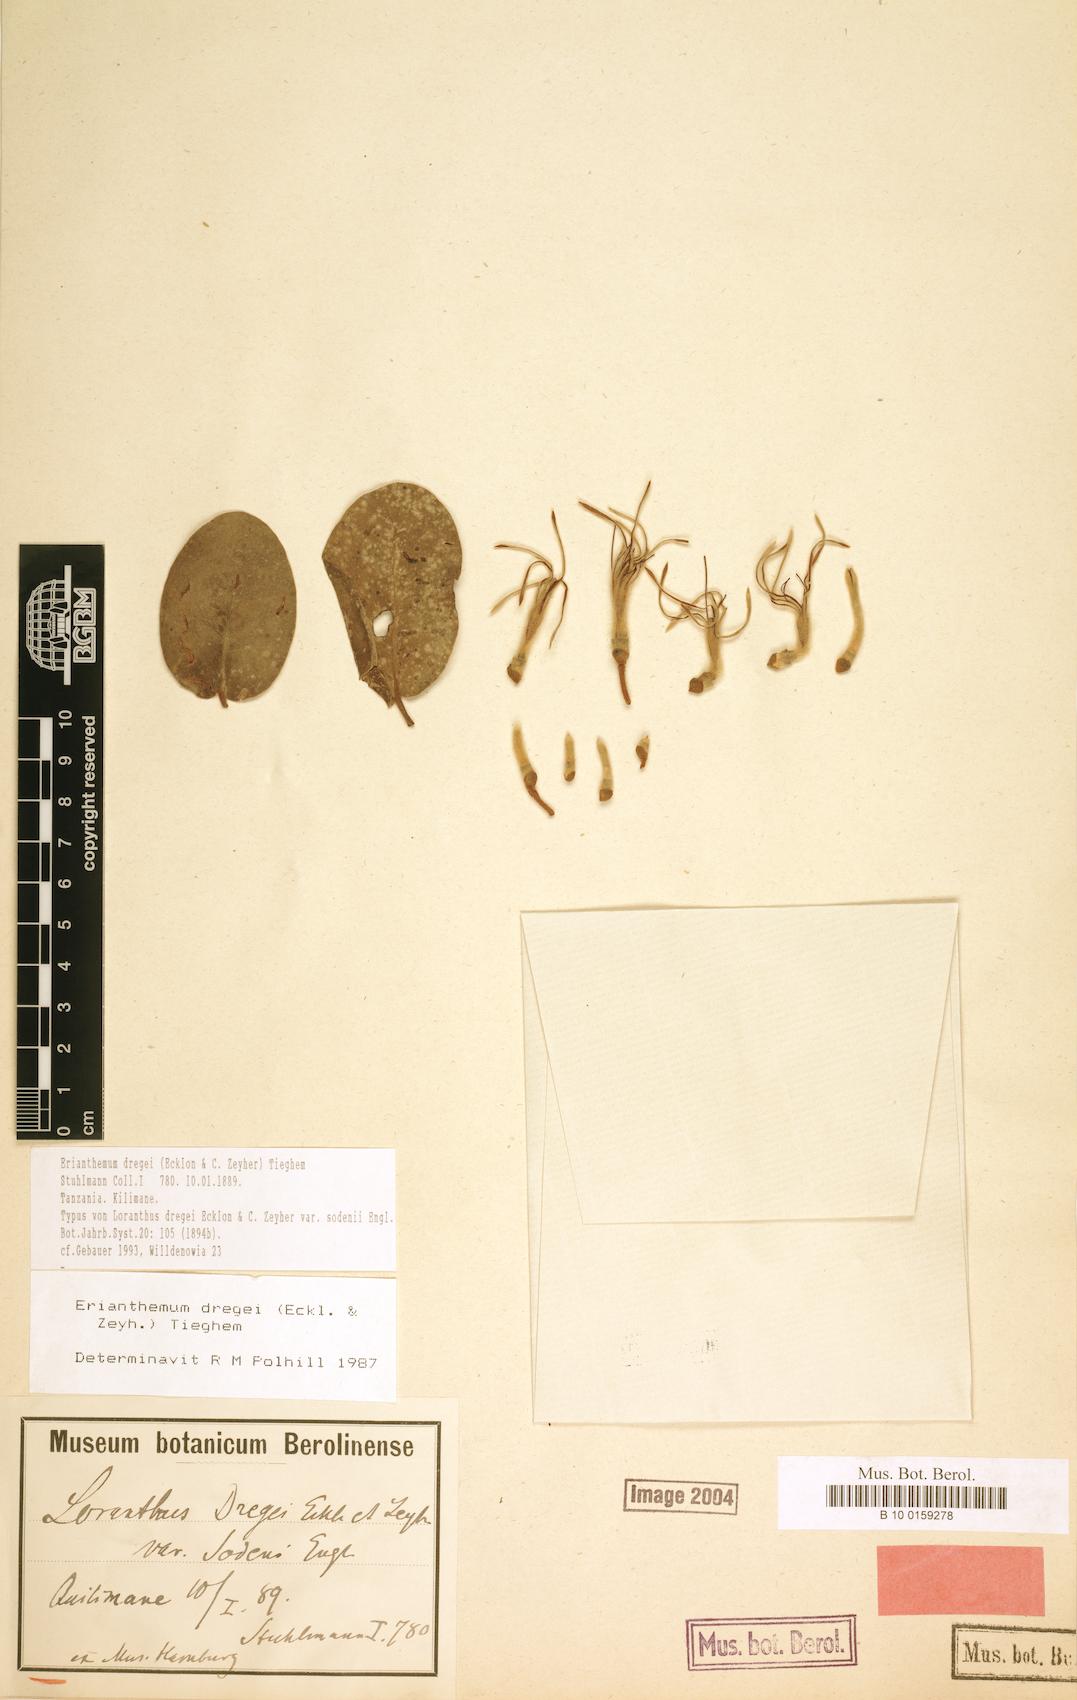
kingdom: Plantae
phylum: Tracheophyta
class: Magnoliopsida
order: Santalales
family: Loranthaceae
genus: Erianthemum
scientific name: Erianthemum dregei
